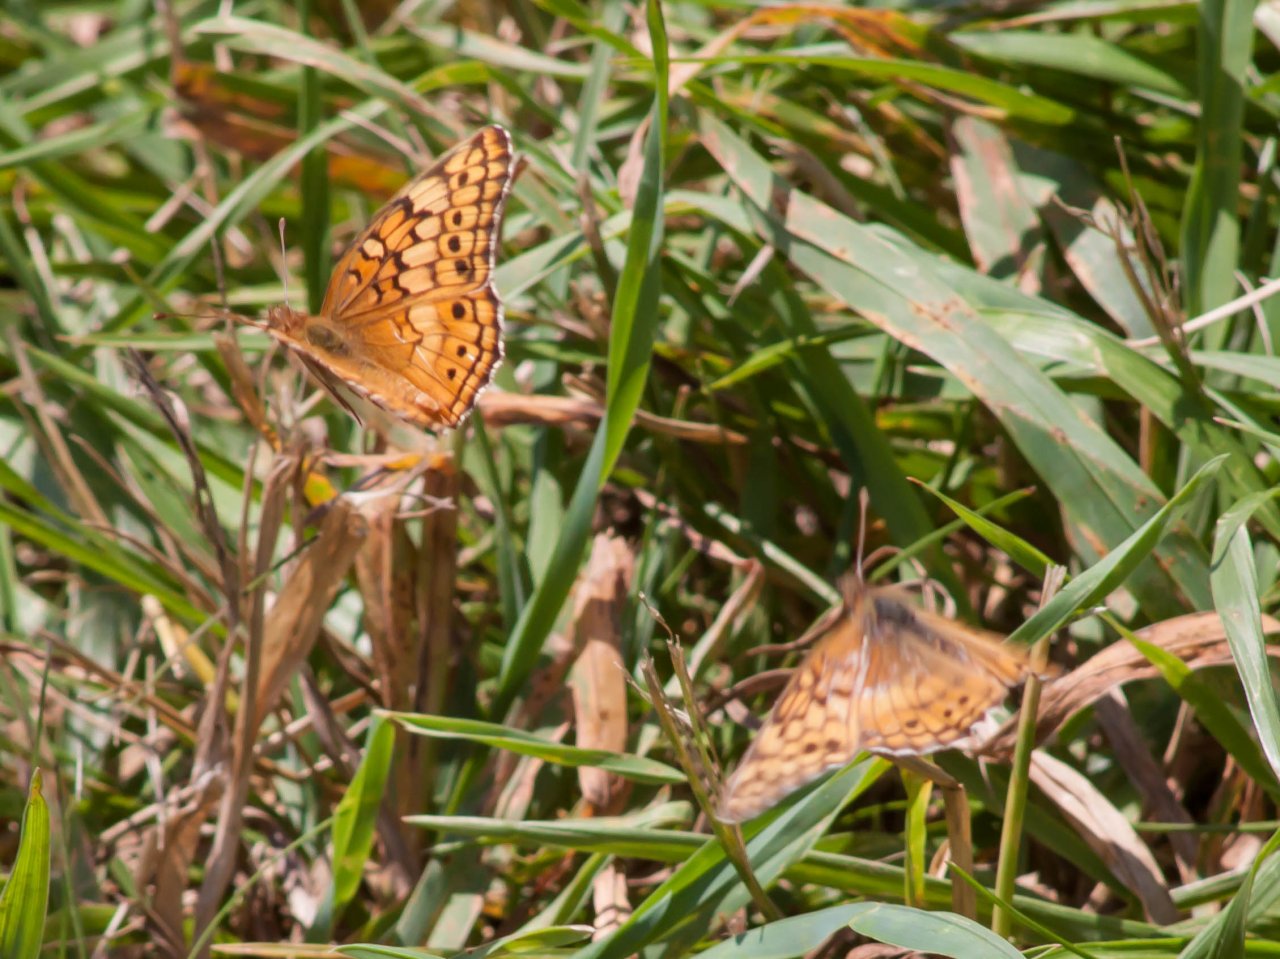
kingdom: Animalia
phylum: Arthropoda
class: Insecta
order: Lepidoptera
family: Nymphalidae
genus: Euptoieta
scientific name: Euptoieta claudia
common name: Variegated Fritillary
